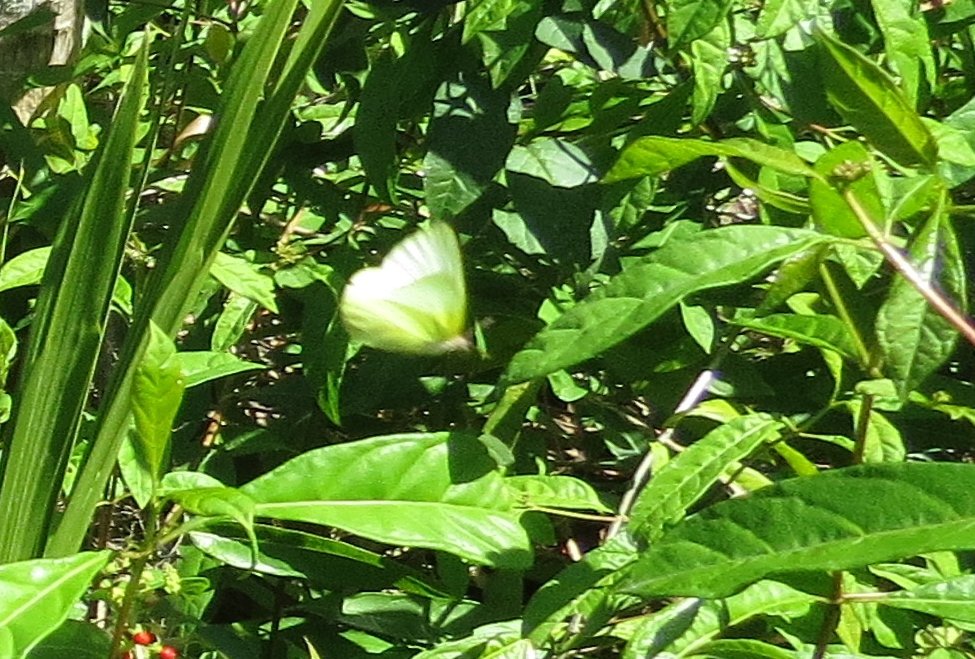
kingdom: Animalia
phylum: Arthropoda
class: Insecta
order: Lepidoptera
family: Pieridae
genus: Ascia
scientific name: Ascia monuste
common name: Great Southern White
